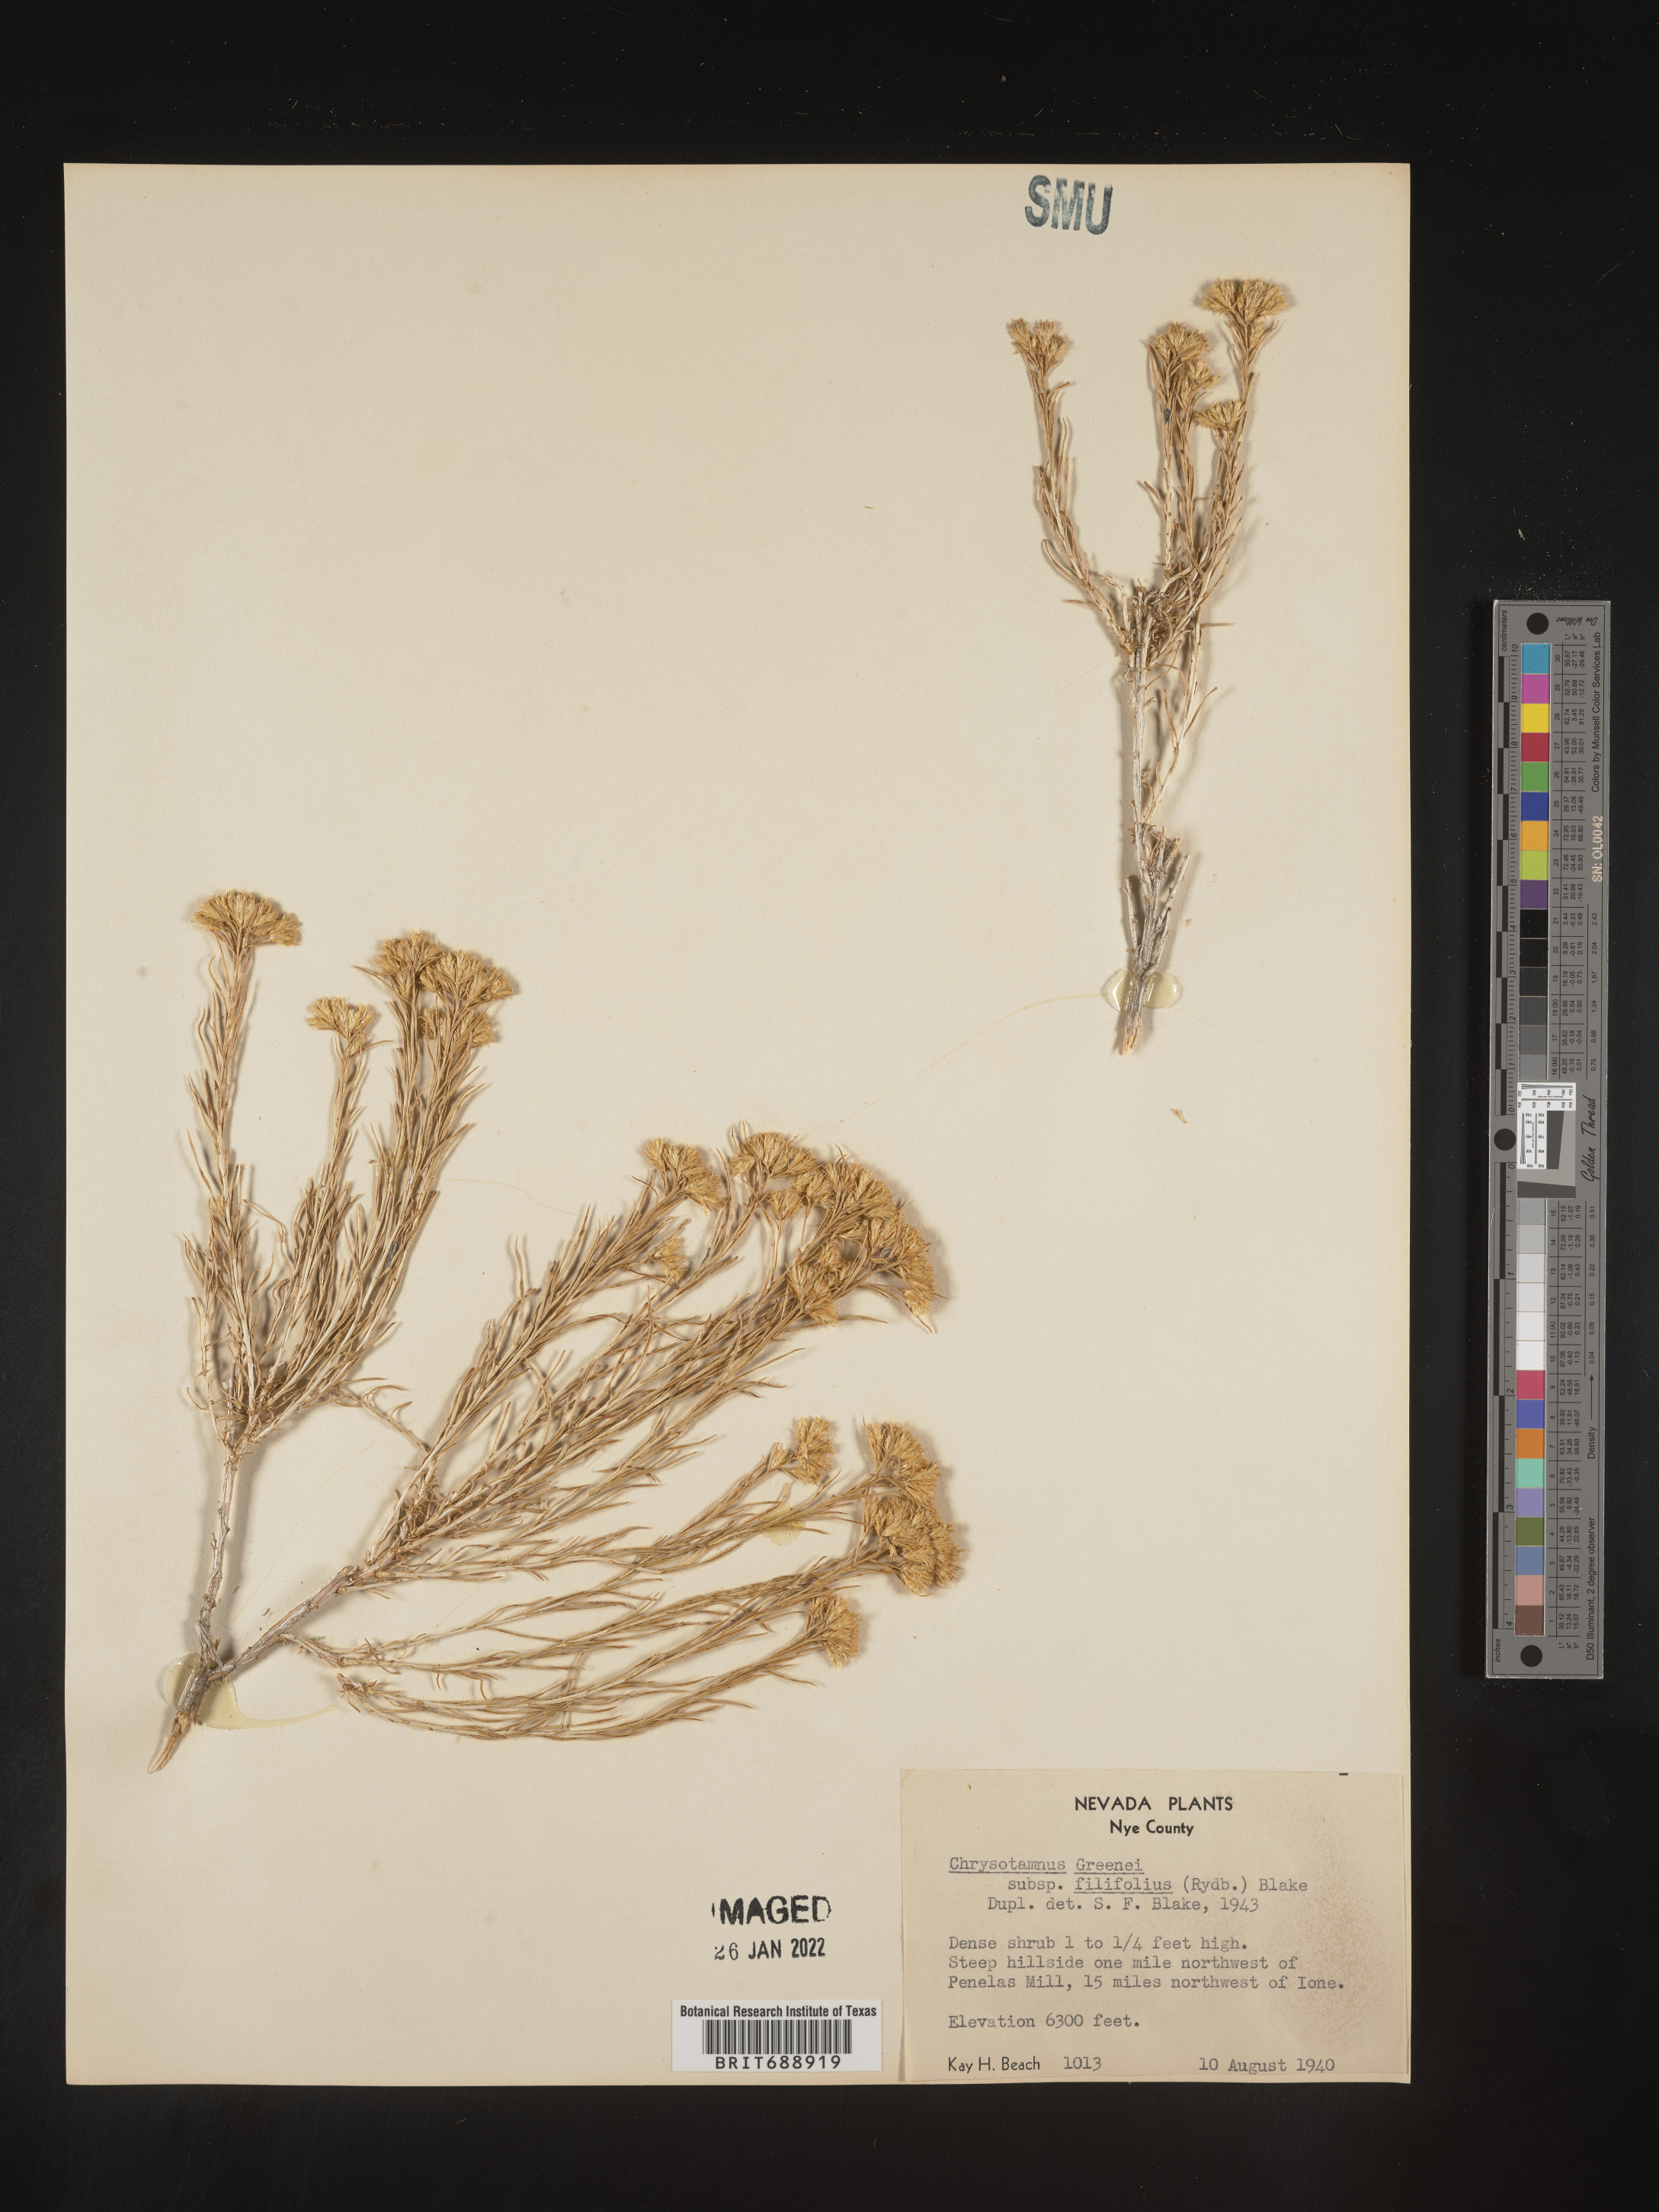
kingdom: Plantae
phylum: Tracheophyta
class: Magnoliopsida
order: Asterales
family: Asteraceae
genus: Chrysothamnus
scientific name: Chrysothamnus greenei
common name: Greene's rabbitbrush
